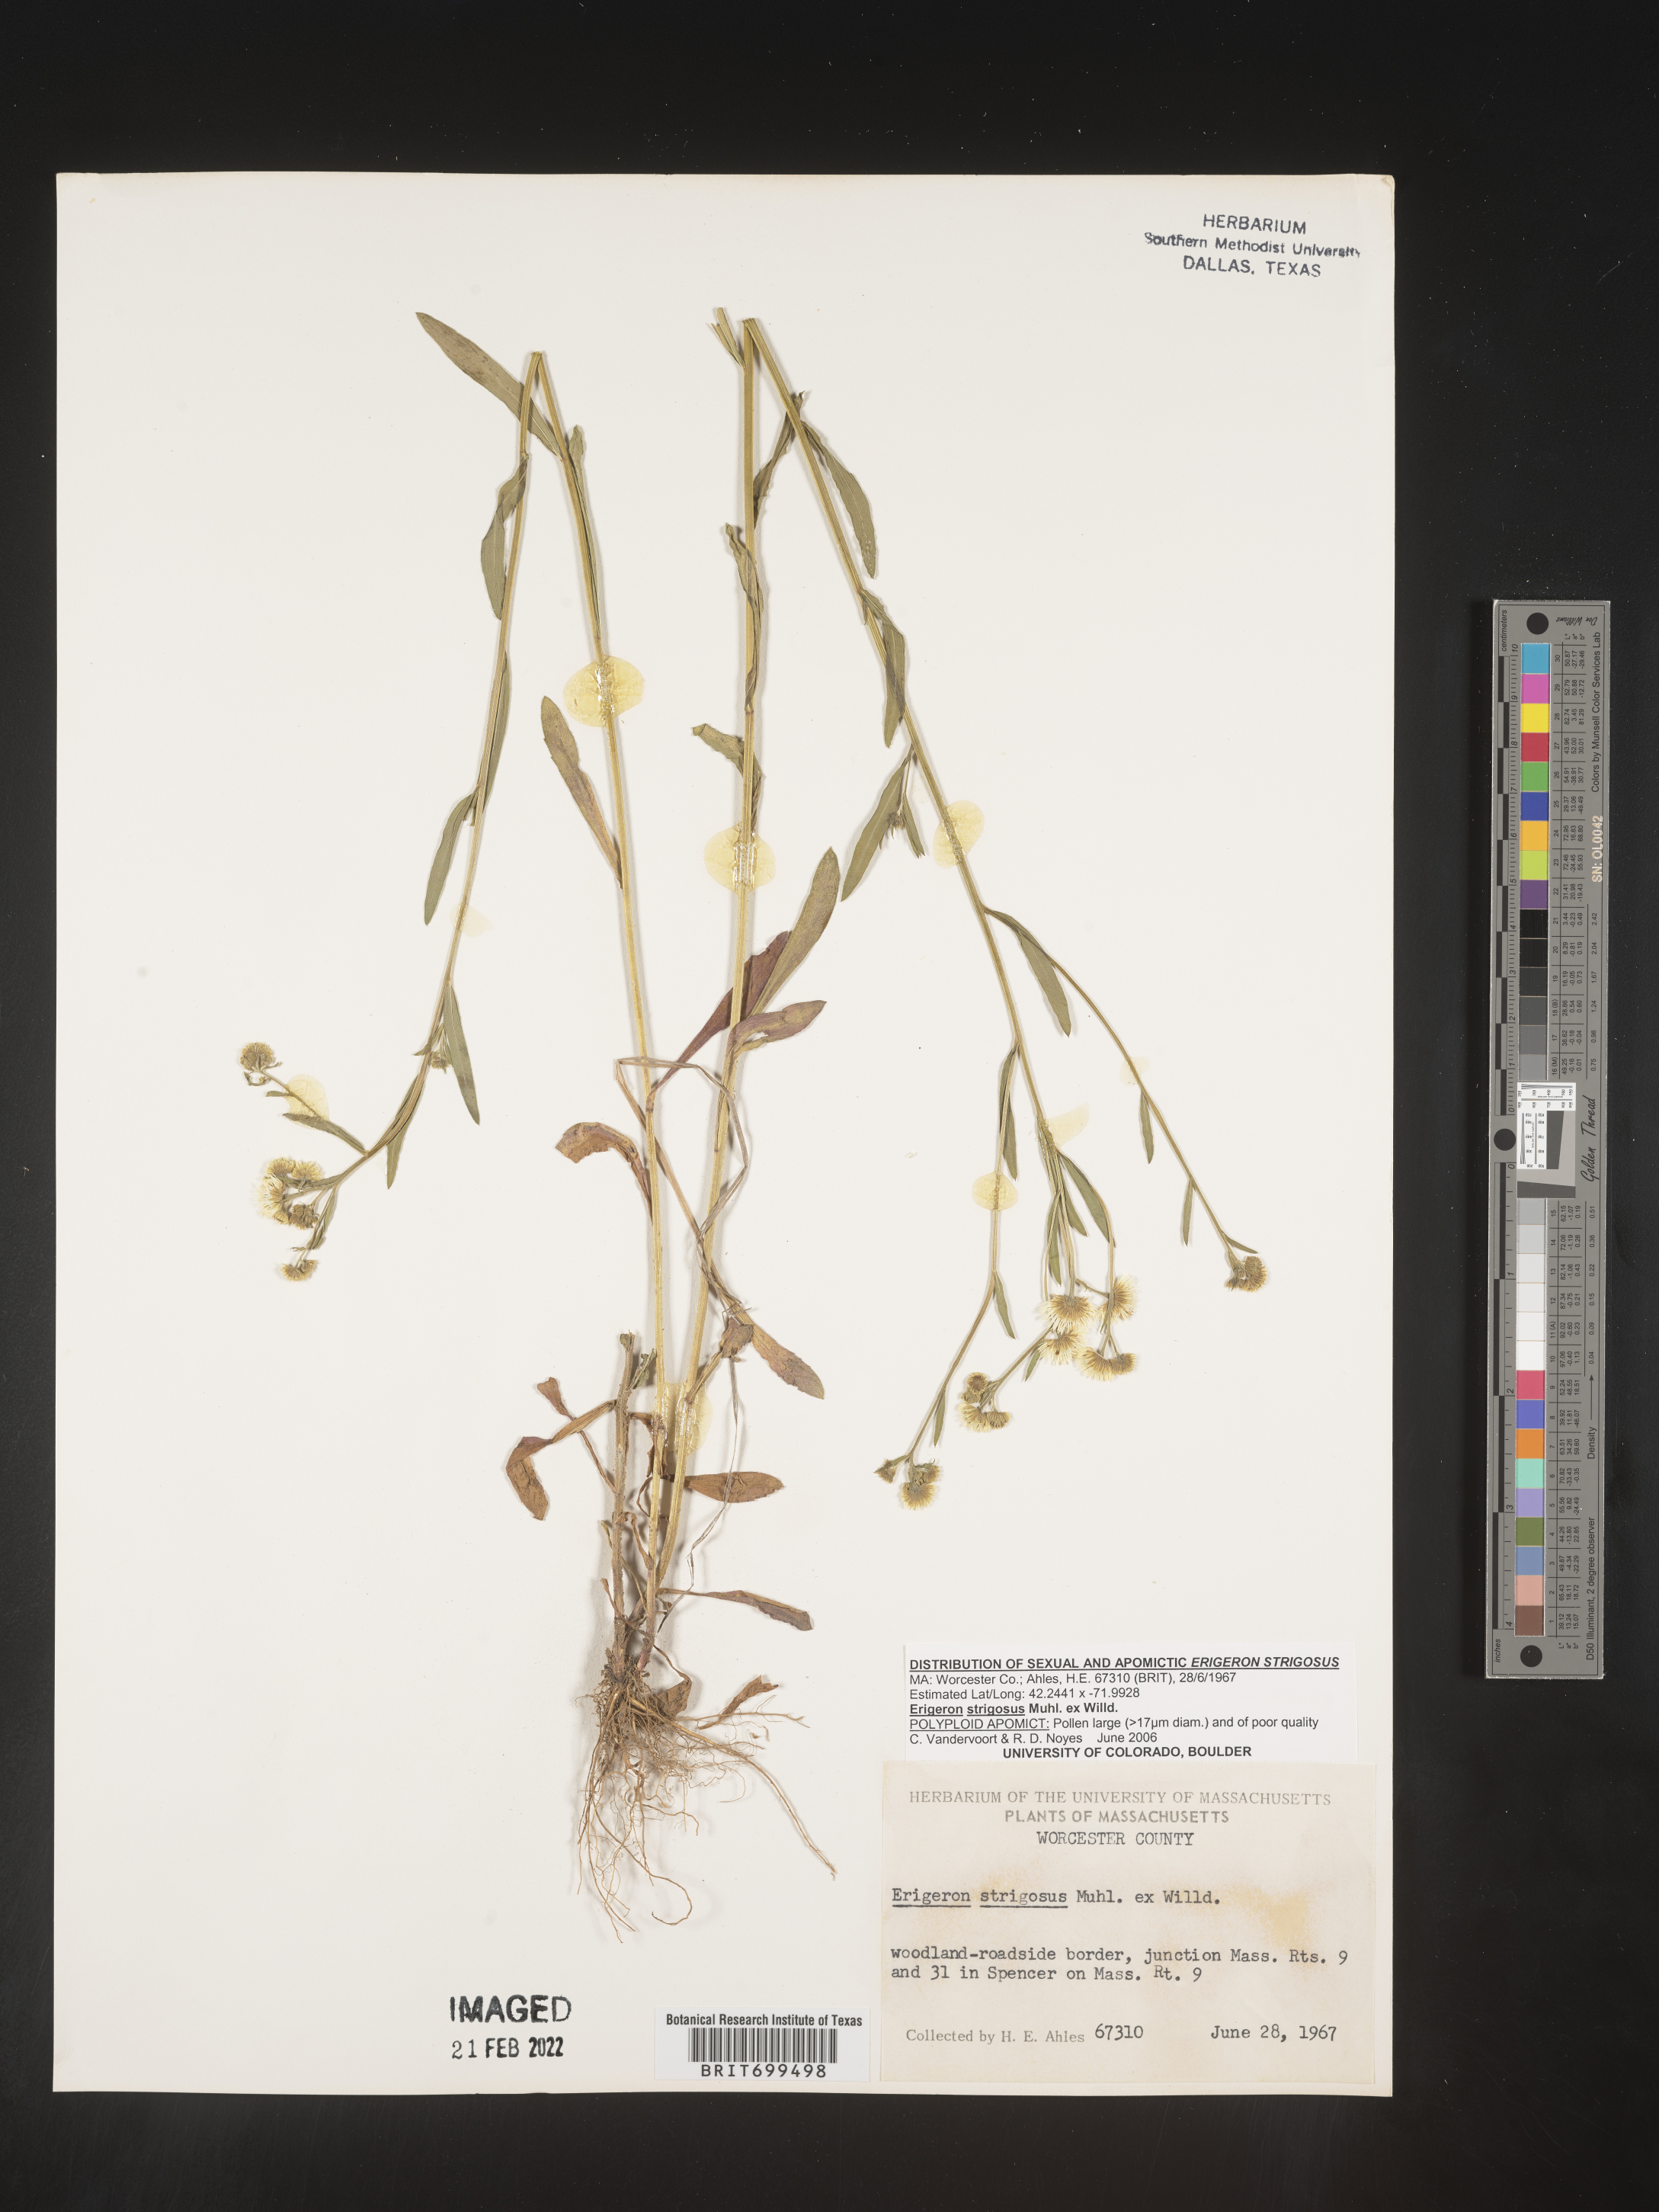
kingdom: Plantae
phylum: Tracheophyta
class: Magnoliopsida
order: Asterales
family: Asteraceae
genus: Erigeron
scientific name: Erigeron strigosus
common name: Common eastern fleabane
